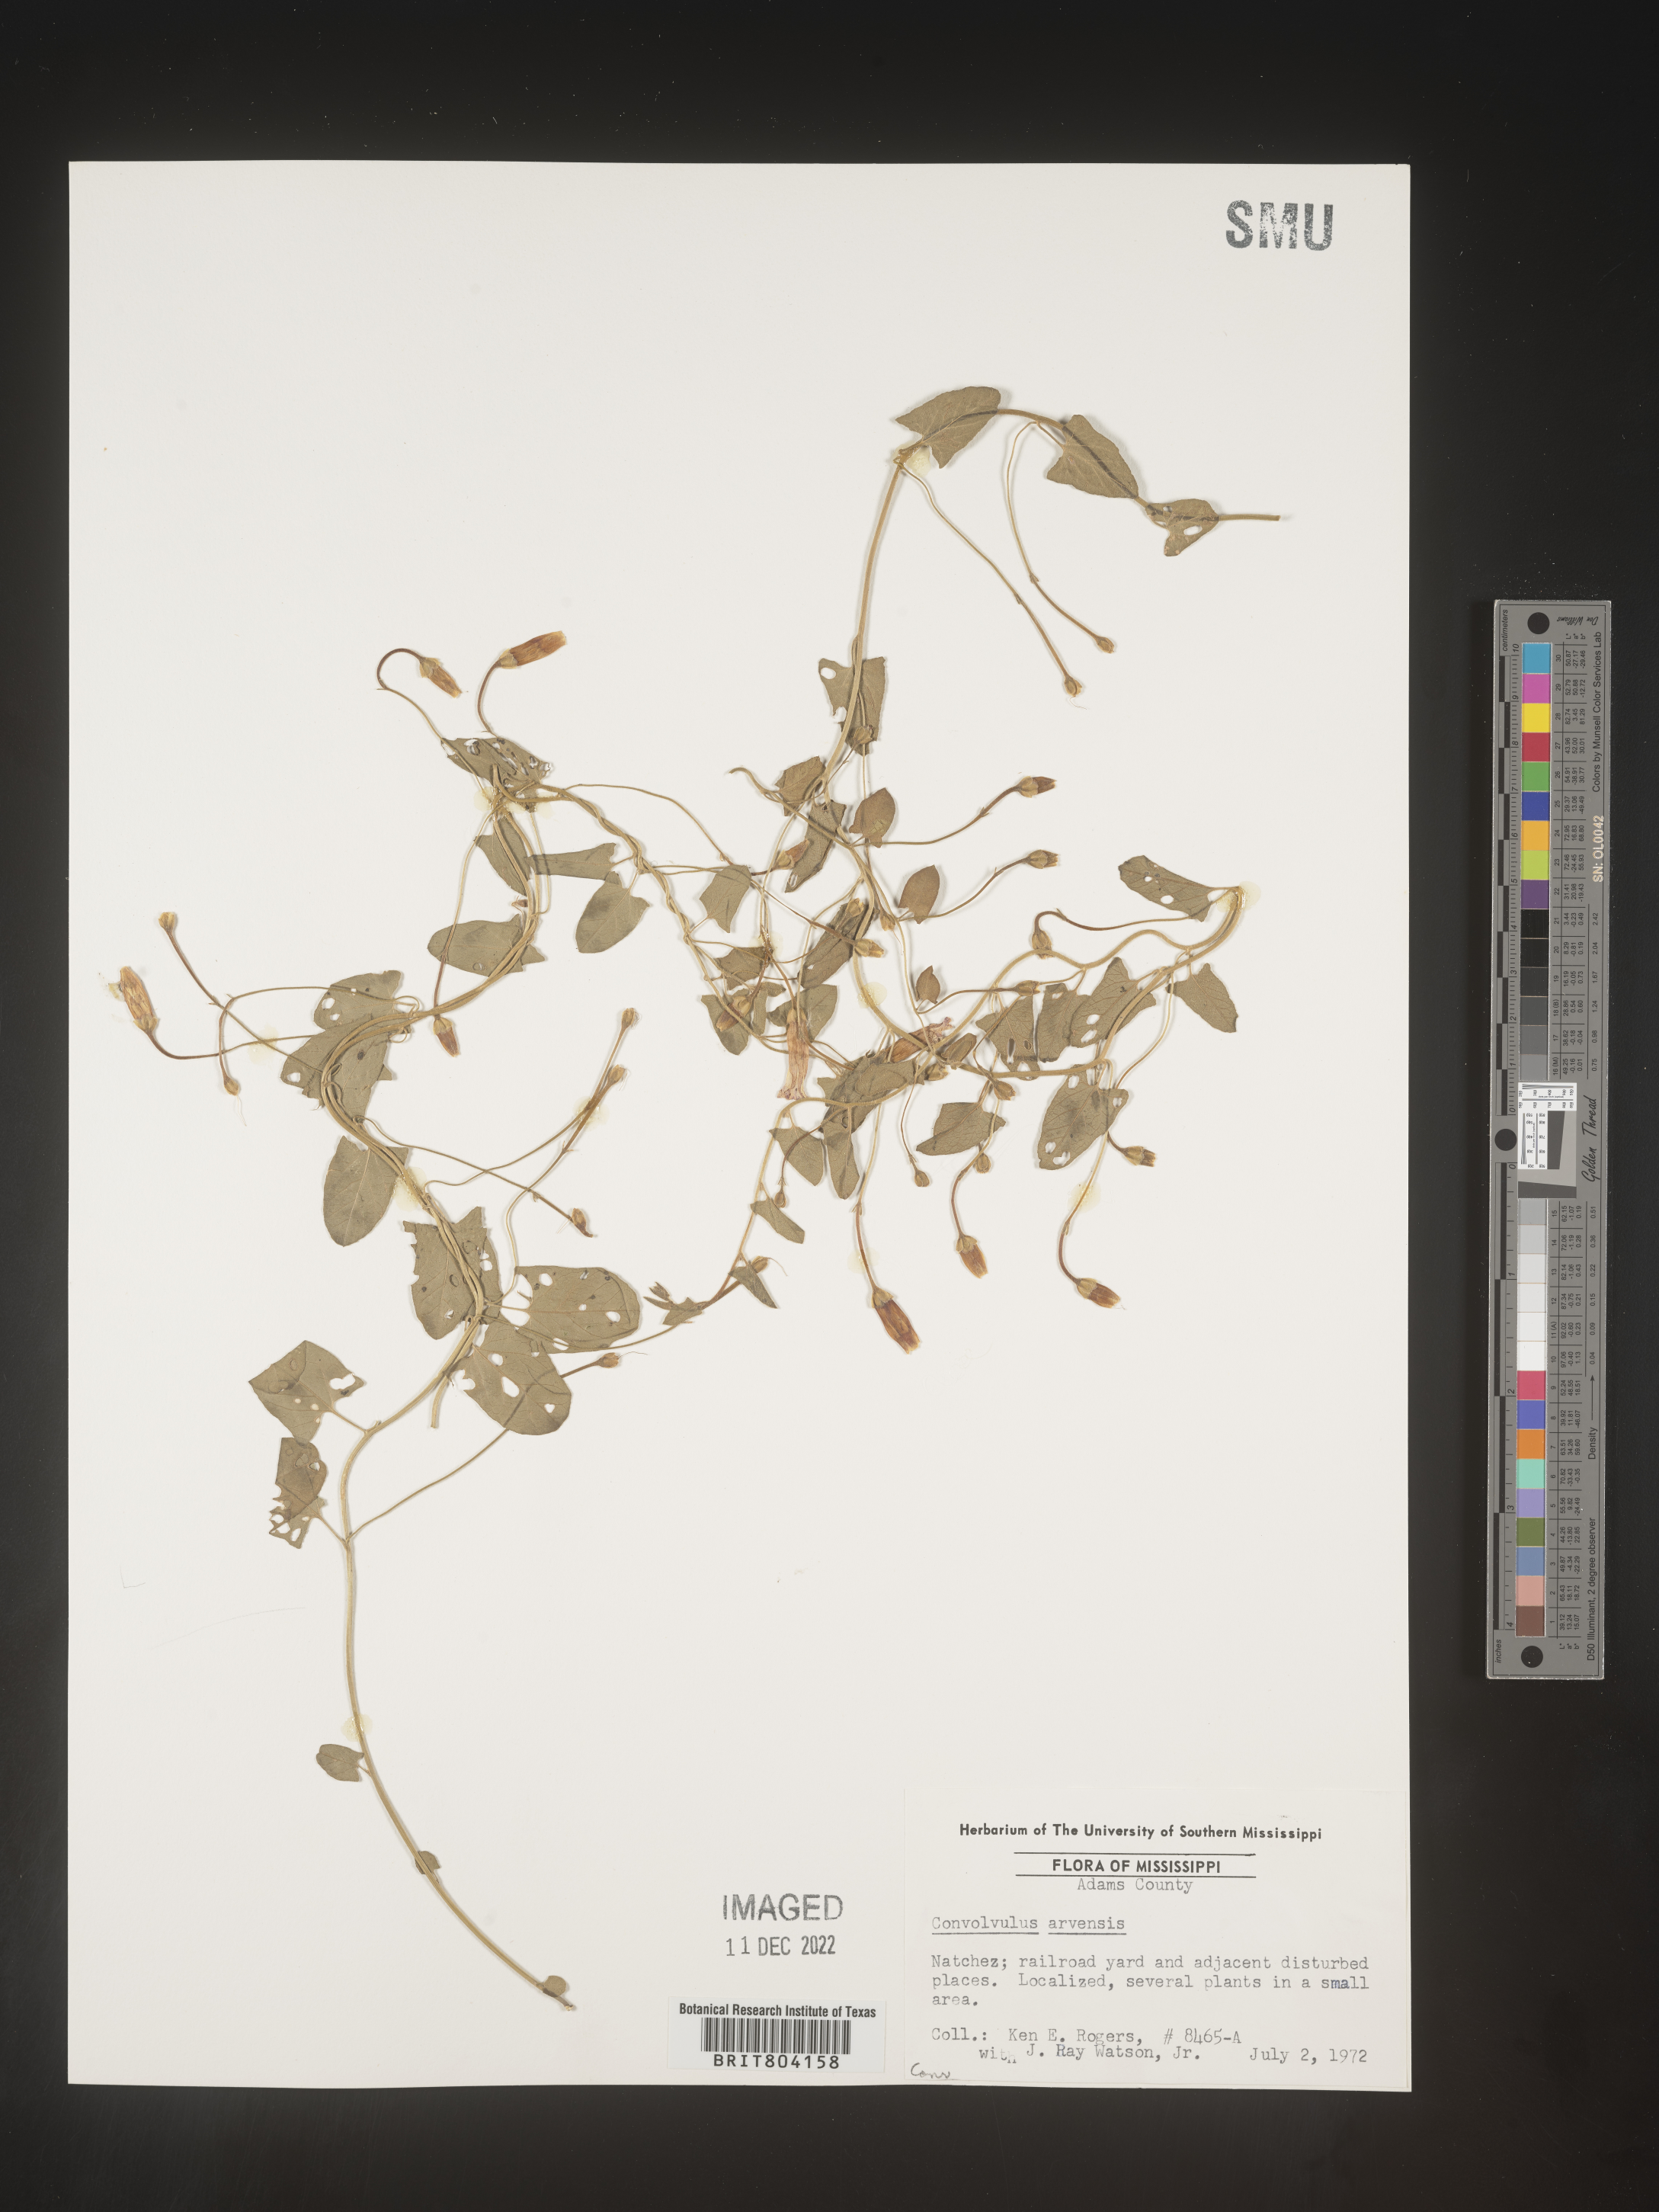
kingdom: Plantae
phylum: Tracheophyta
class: Magnoliopsida
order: Solanales
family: Convolvulaceae
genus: Convolvulus
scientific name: Convolvulus arvensis
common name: Field bindweed
